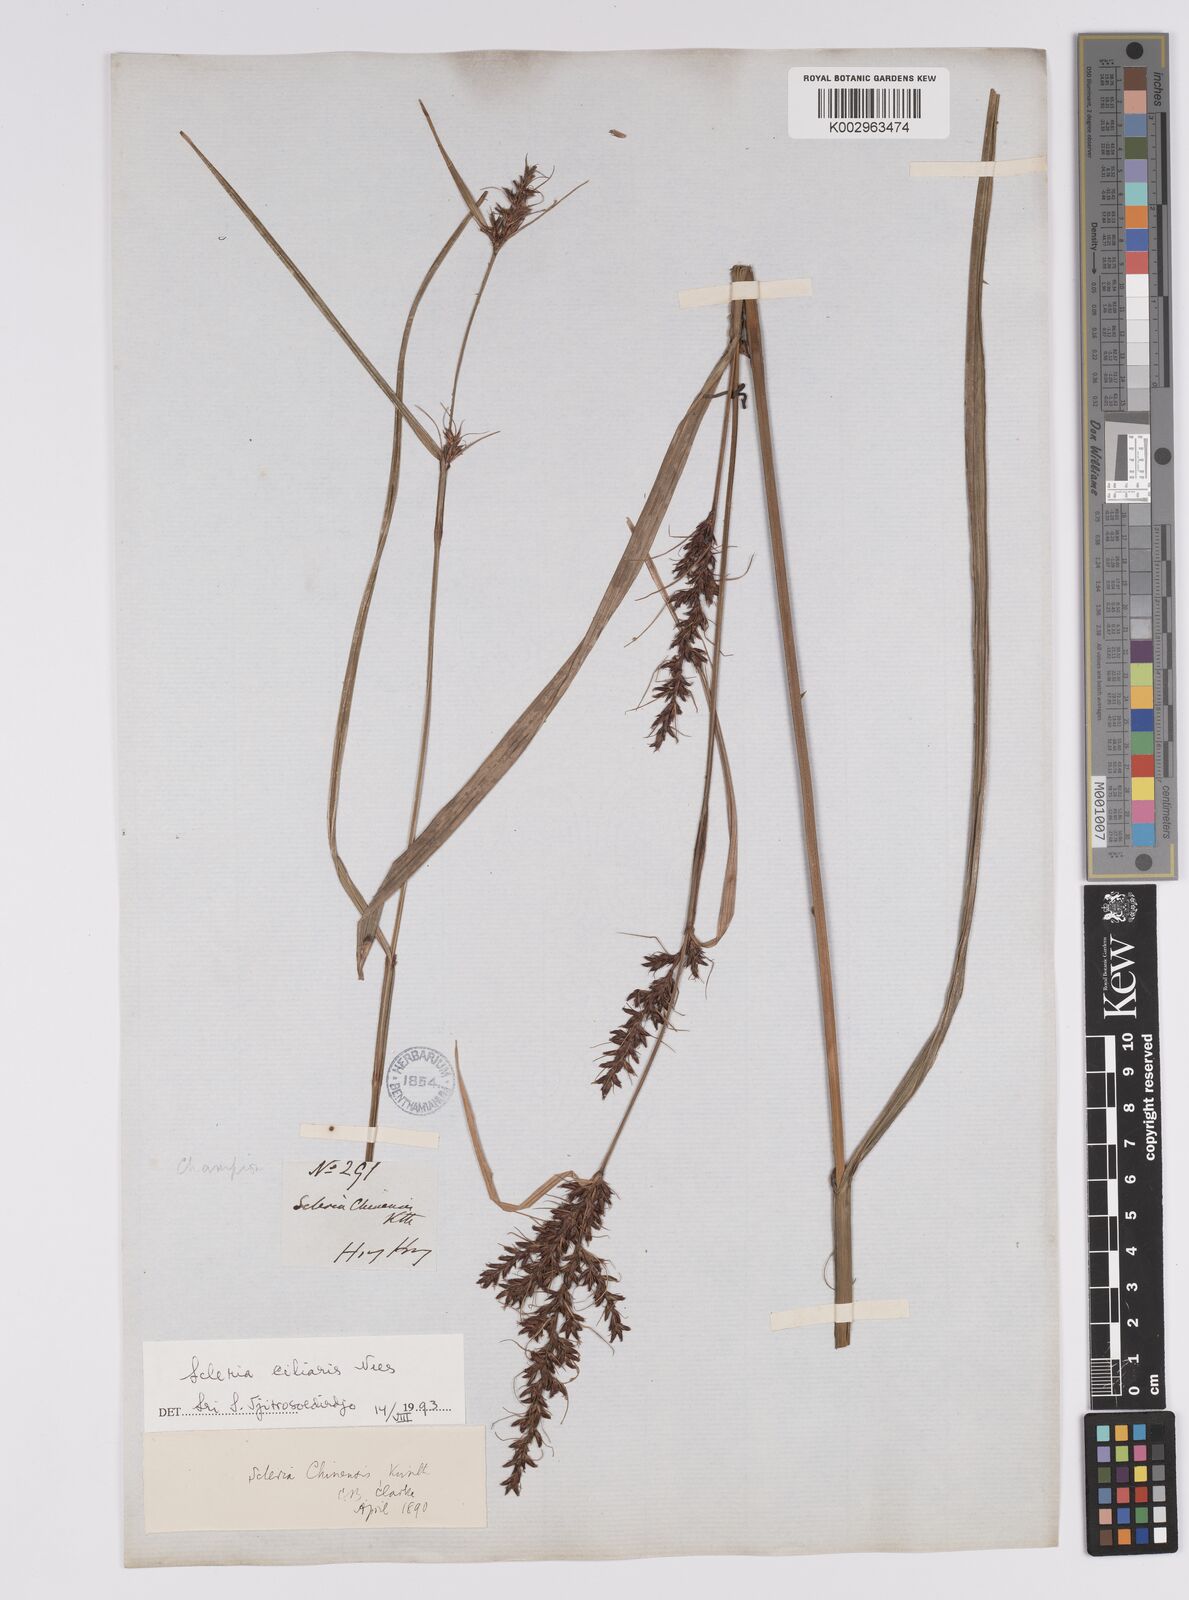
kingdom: Plantae
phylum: Tracheophyta
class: Liliopsida
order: Poales
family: Cyperaceae
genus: Scleria
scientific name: Scleria ciliaris
